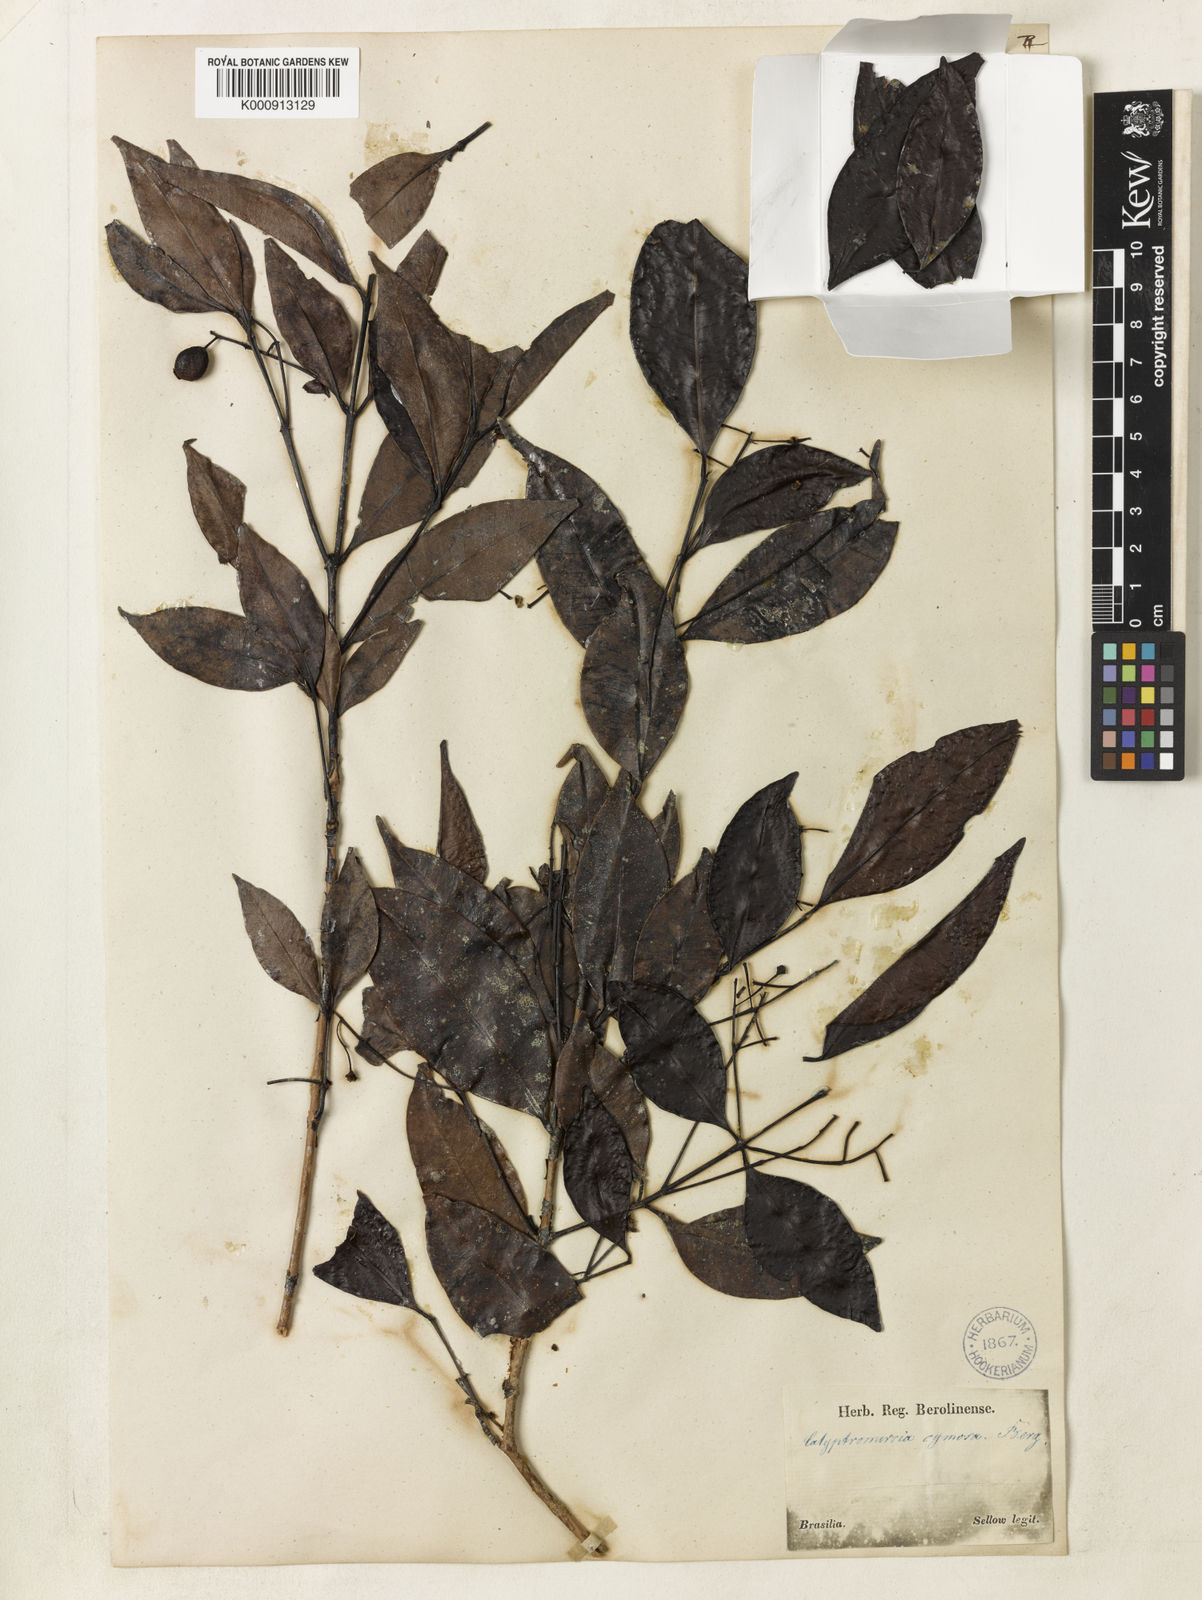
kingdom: Plantae
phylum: Tracheophyta
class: Magnoliopsida
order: Myrtales
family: Myrtaceae
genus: Myrcia
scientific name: Myrcia guianensis
